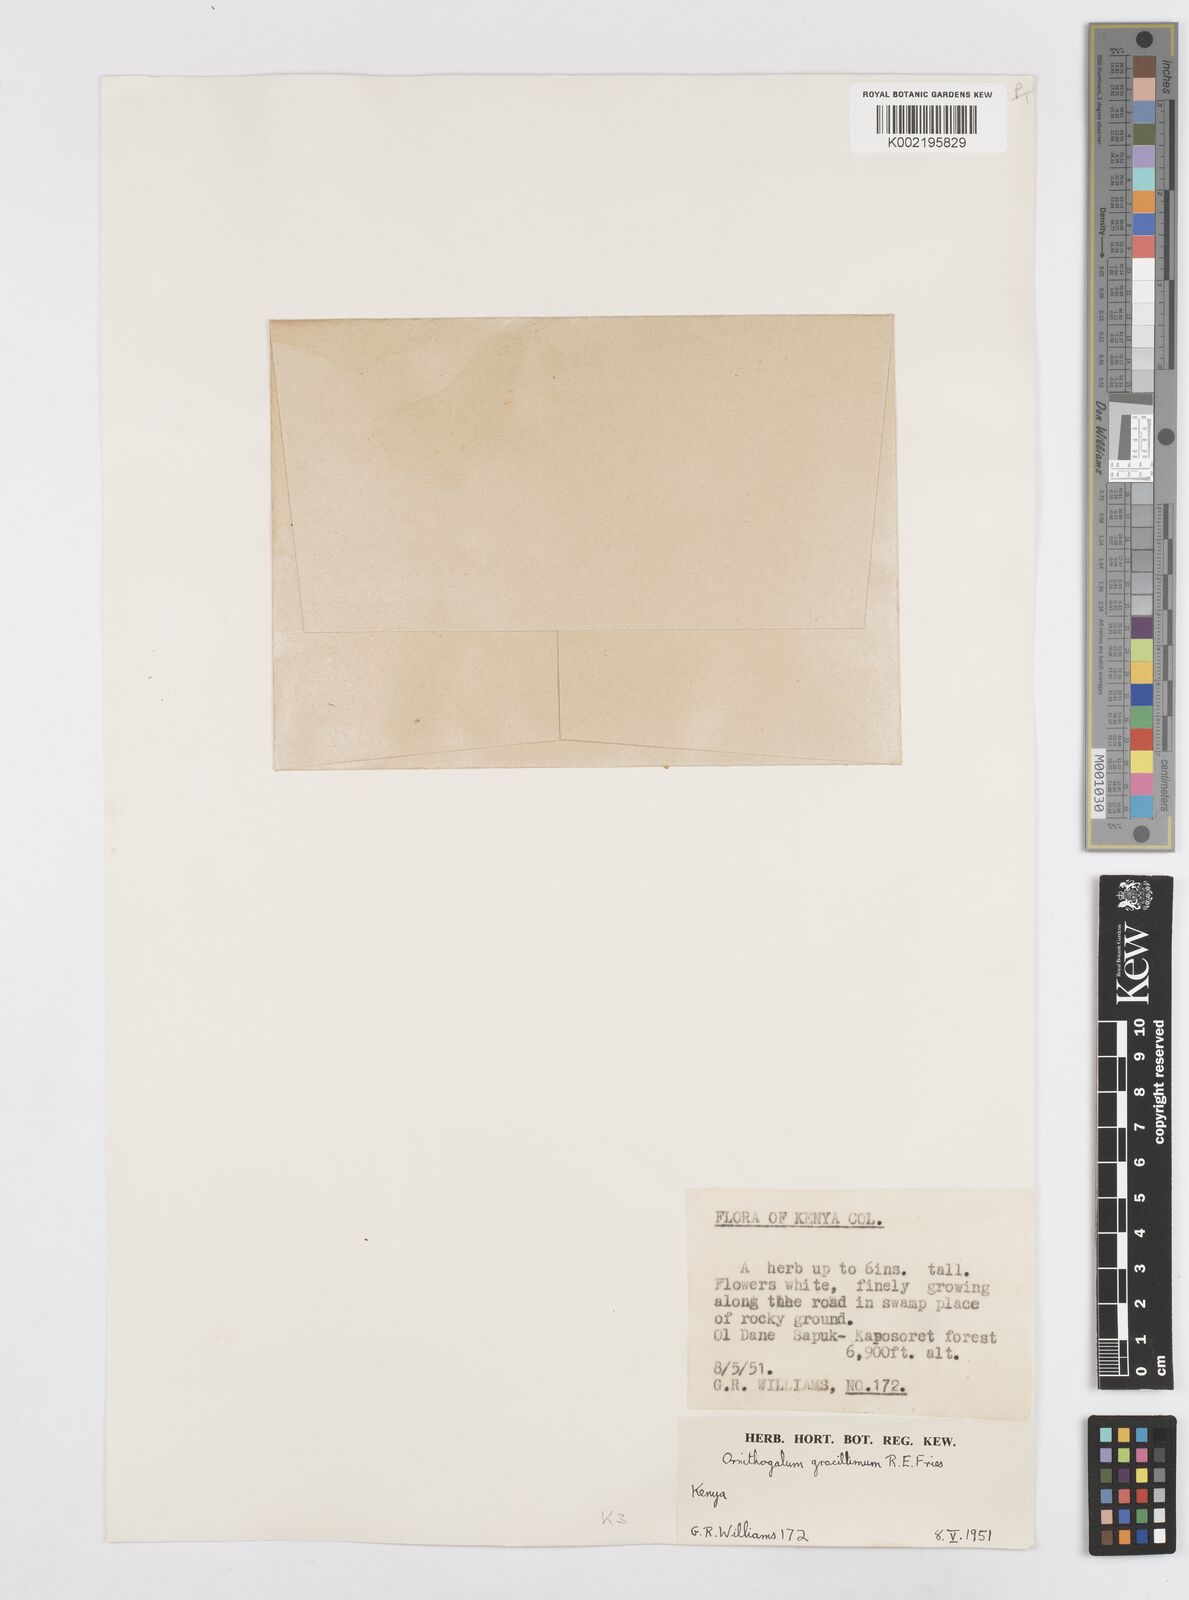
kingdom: Plantae
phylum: Tracheophyta
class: Liliopsida
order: Asparagales
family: Asparagaceae
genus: Ornithogalum
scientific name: Ornithogalum gracillimum
